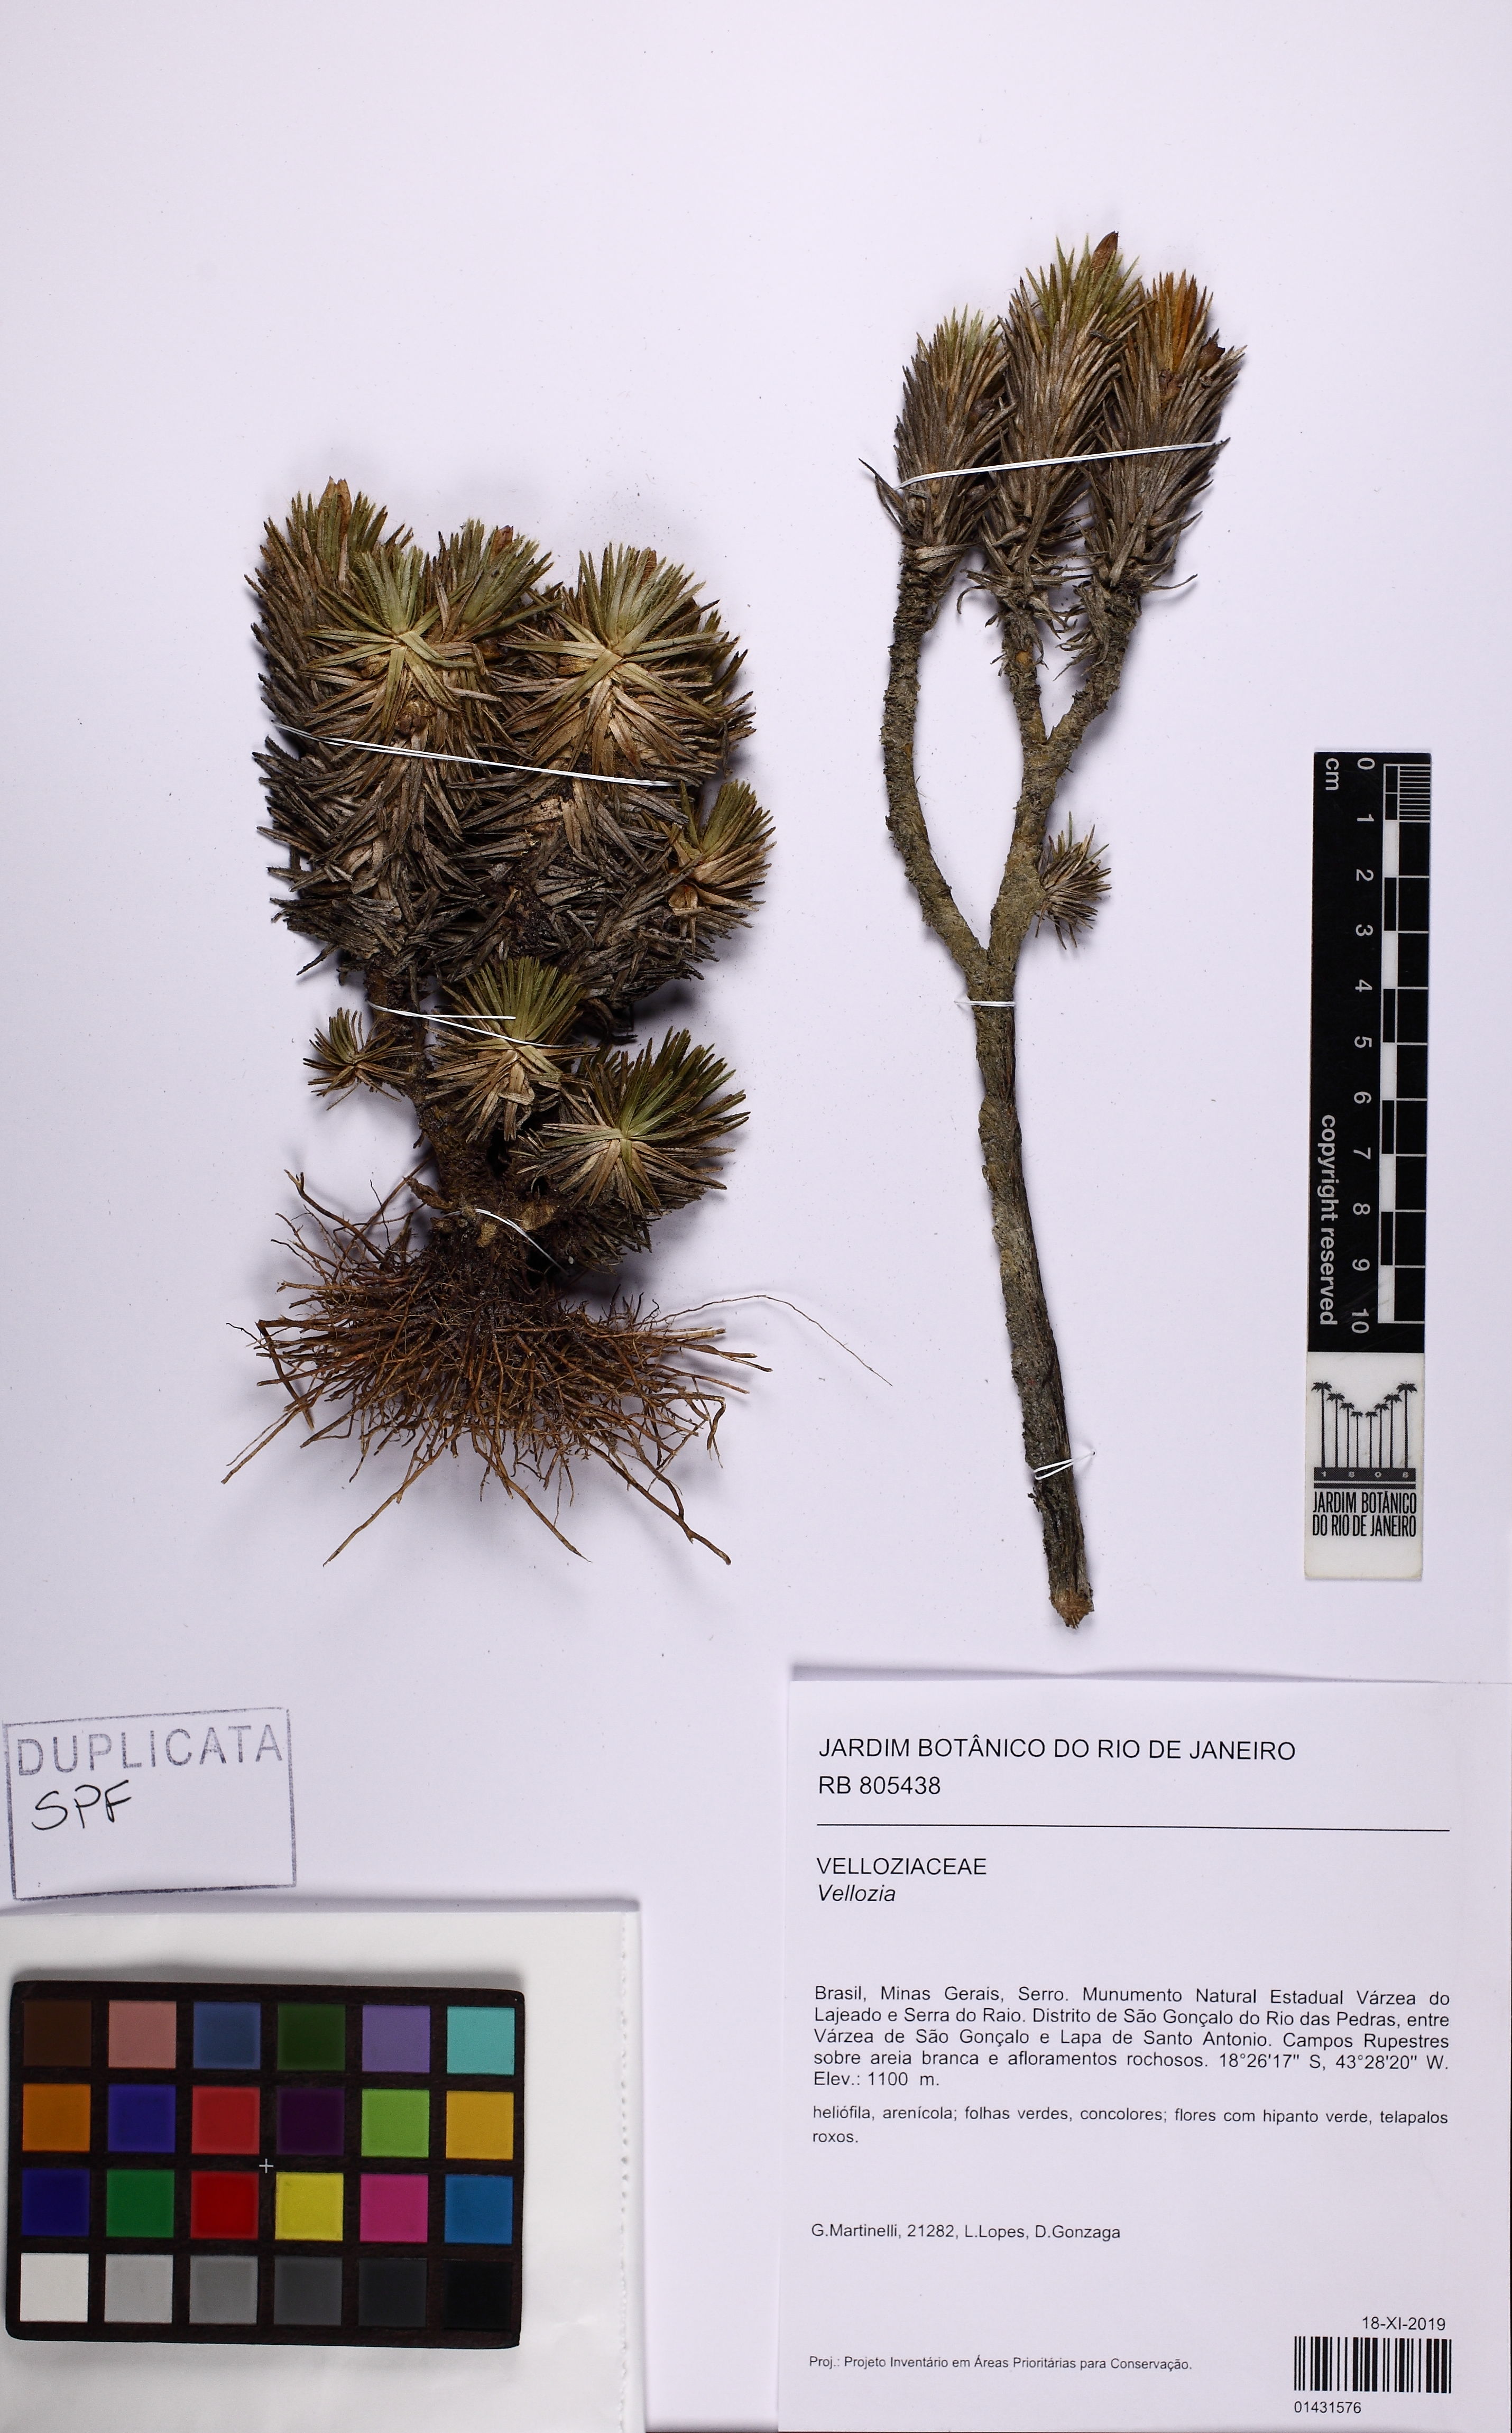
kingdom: Plantae
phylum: Tracheophyta
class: Liliopsida
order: Pandanales
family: Velloziaceae
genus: Vellozia
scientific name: Vellozia
